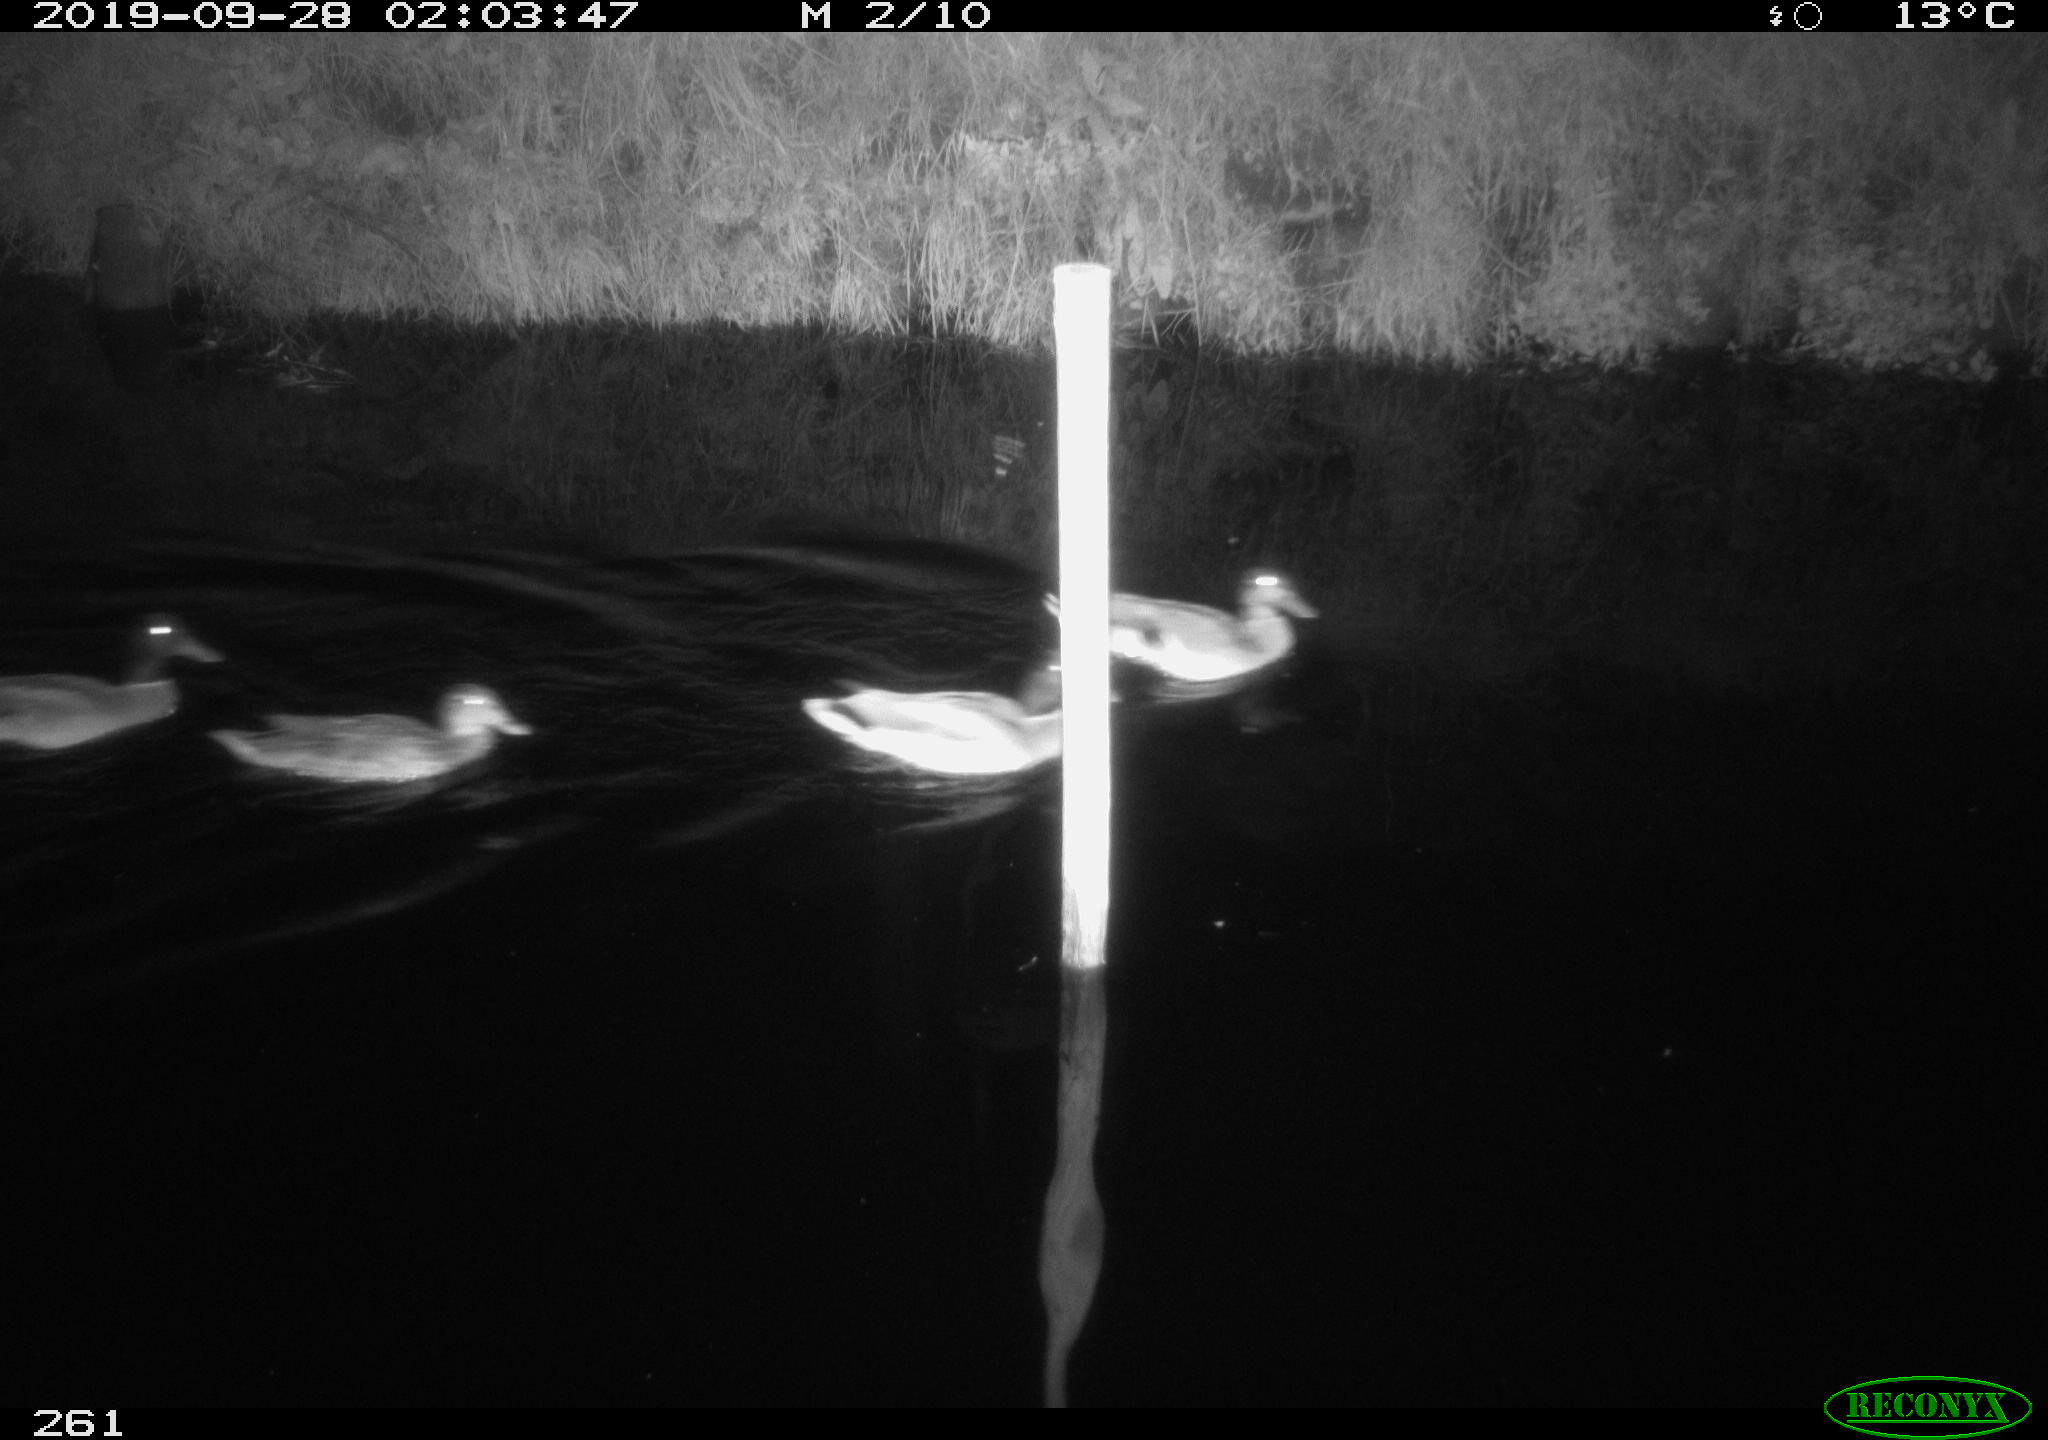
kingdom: Animalia
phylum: Chordata
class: Aves
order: Anseriformes
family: Anatidae
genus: Anas
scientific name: Anas platyrhynchos
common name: Mallard
